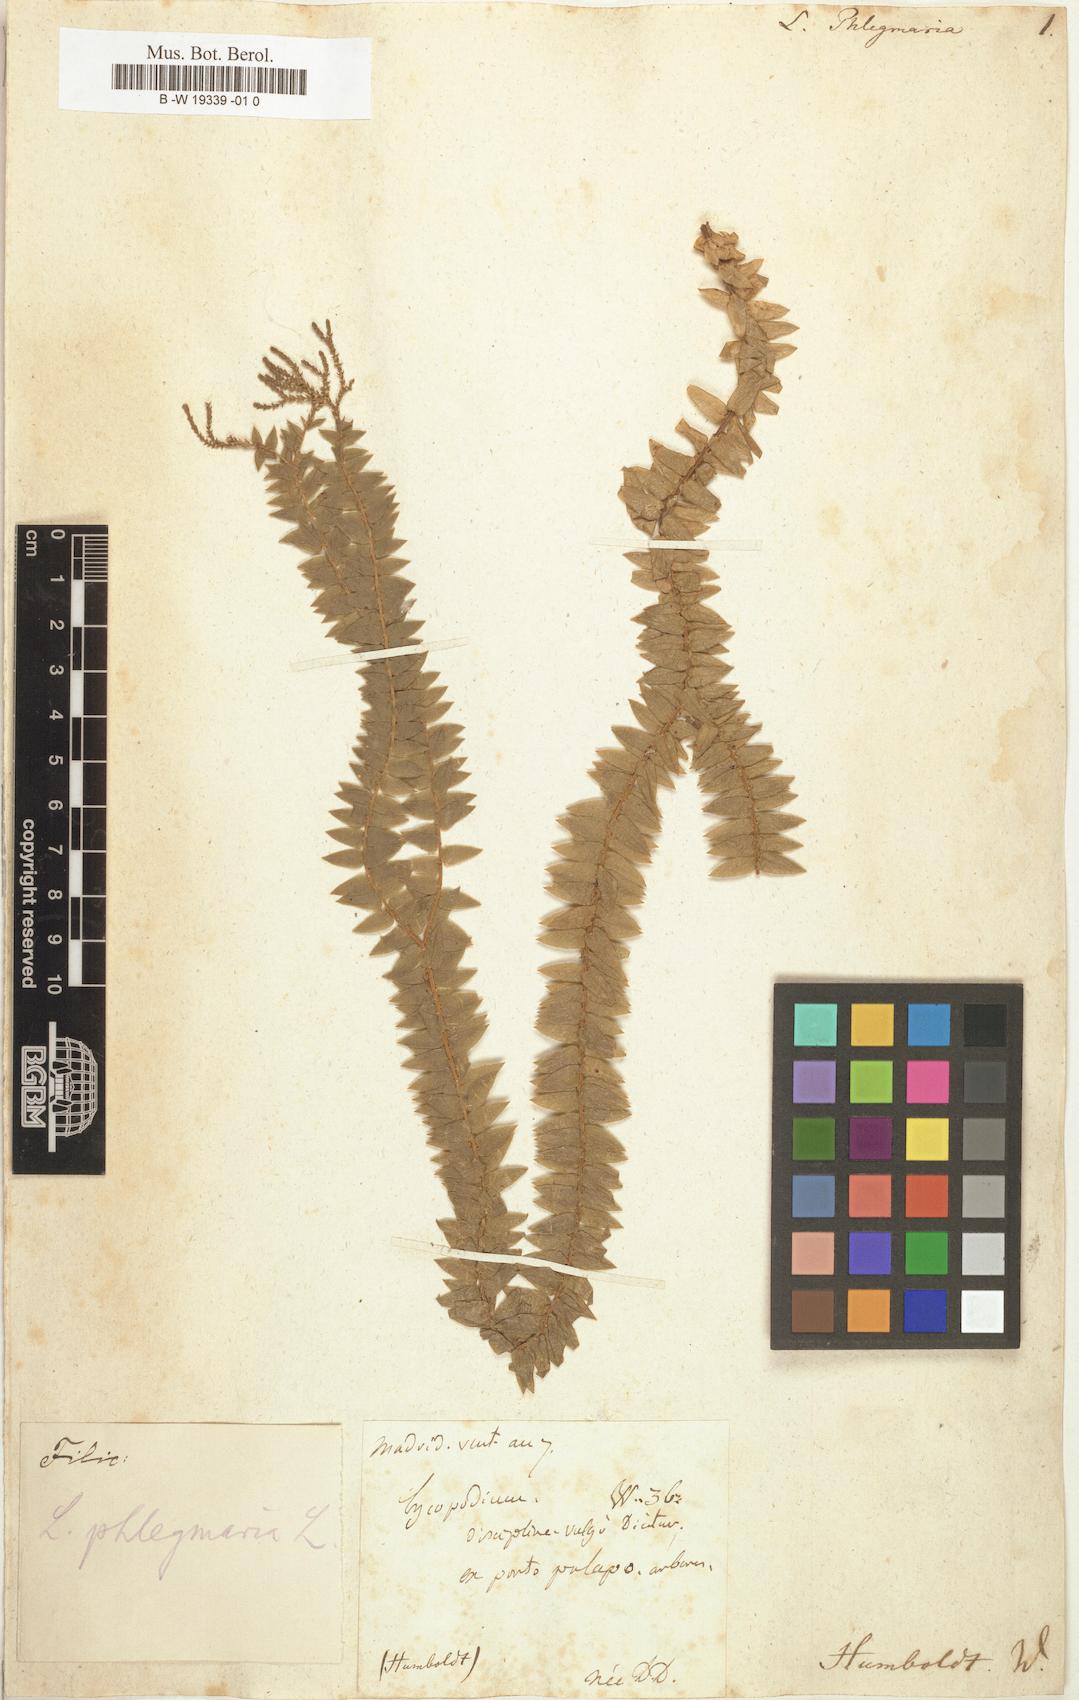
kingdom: Plantae
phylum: Tracheophyta
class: Lycopodiopsida
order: Lycopodiales
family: Lycopodiaceae
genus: Phlegmariurus
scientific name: Phlegmariurus
